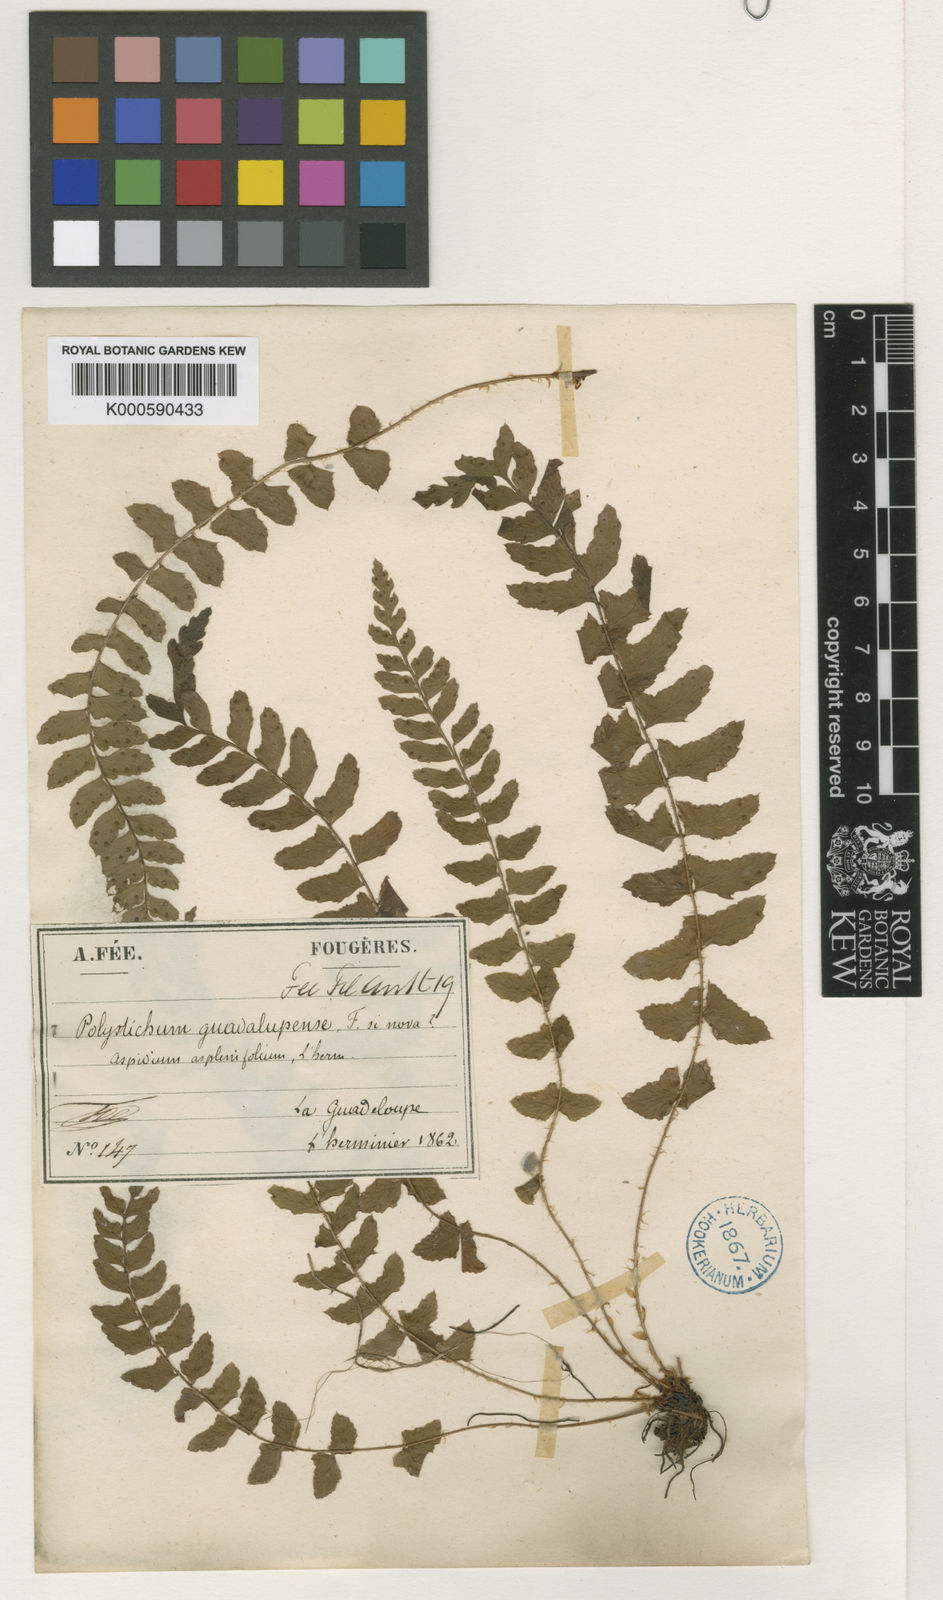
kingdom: Plantae
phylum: Tracheophyta
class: Polypodiopsida
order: Polypodiales
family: Dryopteridaceae
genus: Polystichum
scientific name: Polystichum
